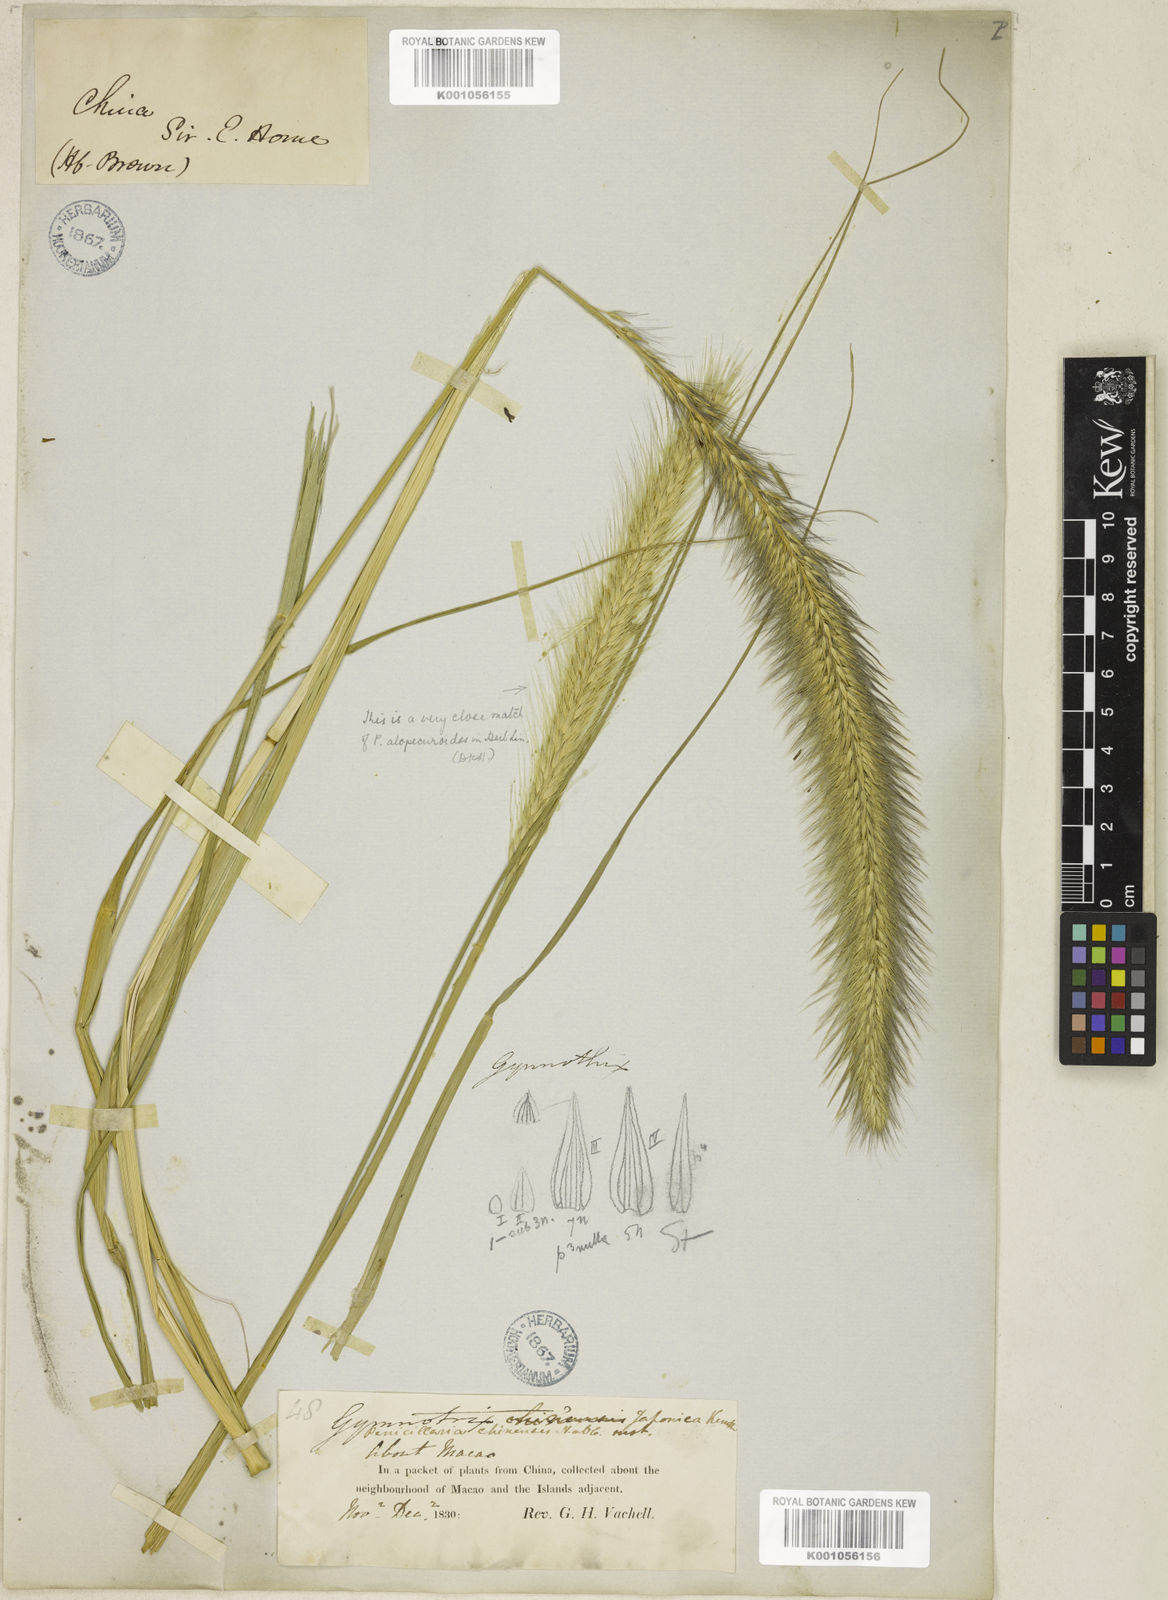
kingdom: Plantae
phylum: Tracheophyta
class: Liliopsida
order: Poales
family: Poaceae
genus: Cenchrus
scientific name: Cenchrus alopecuroides
